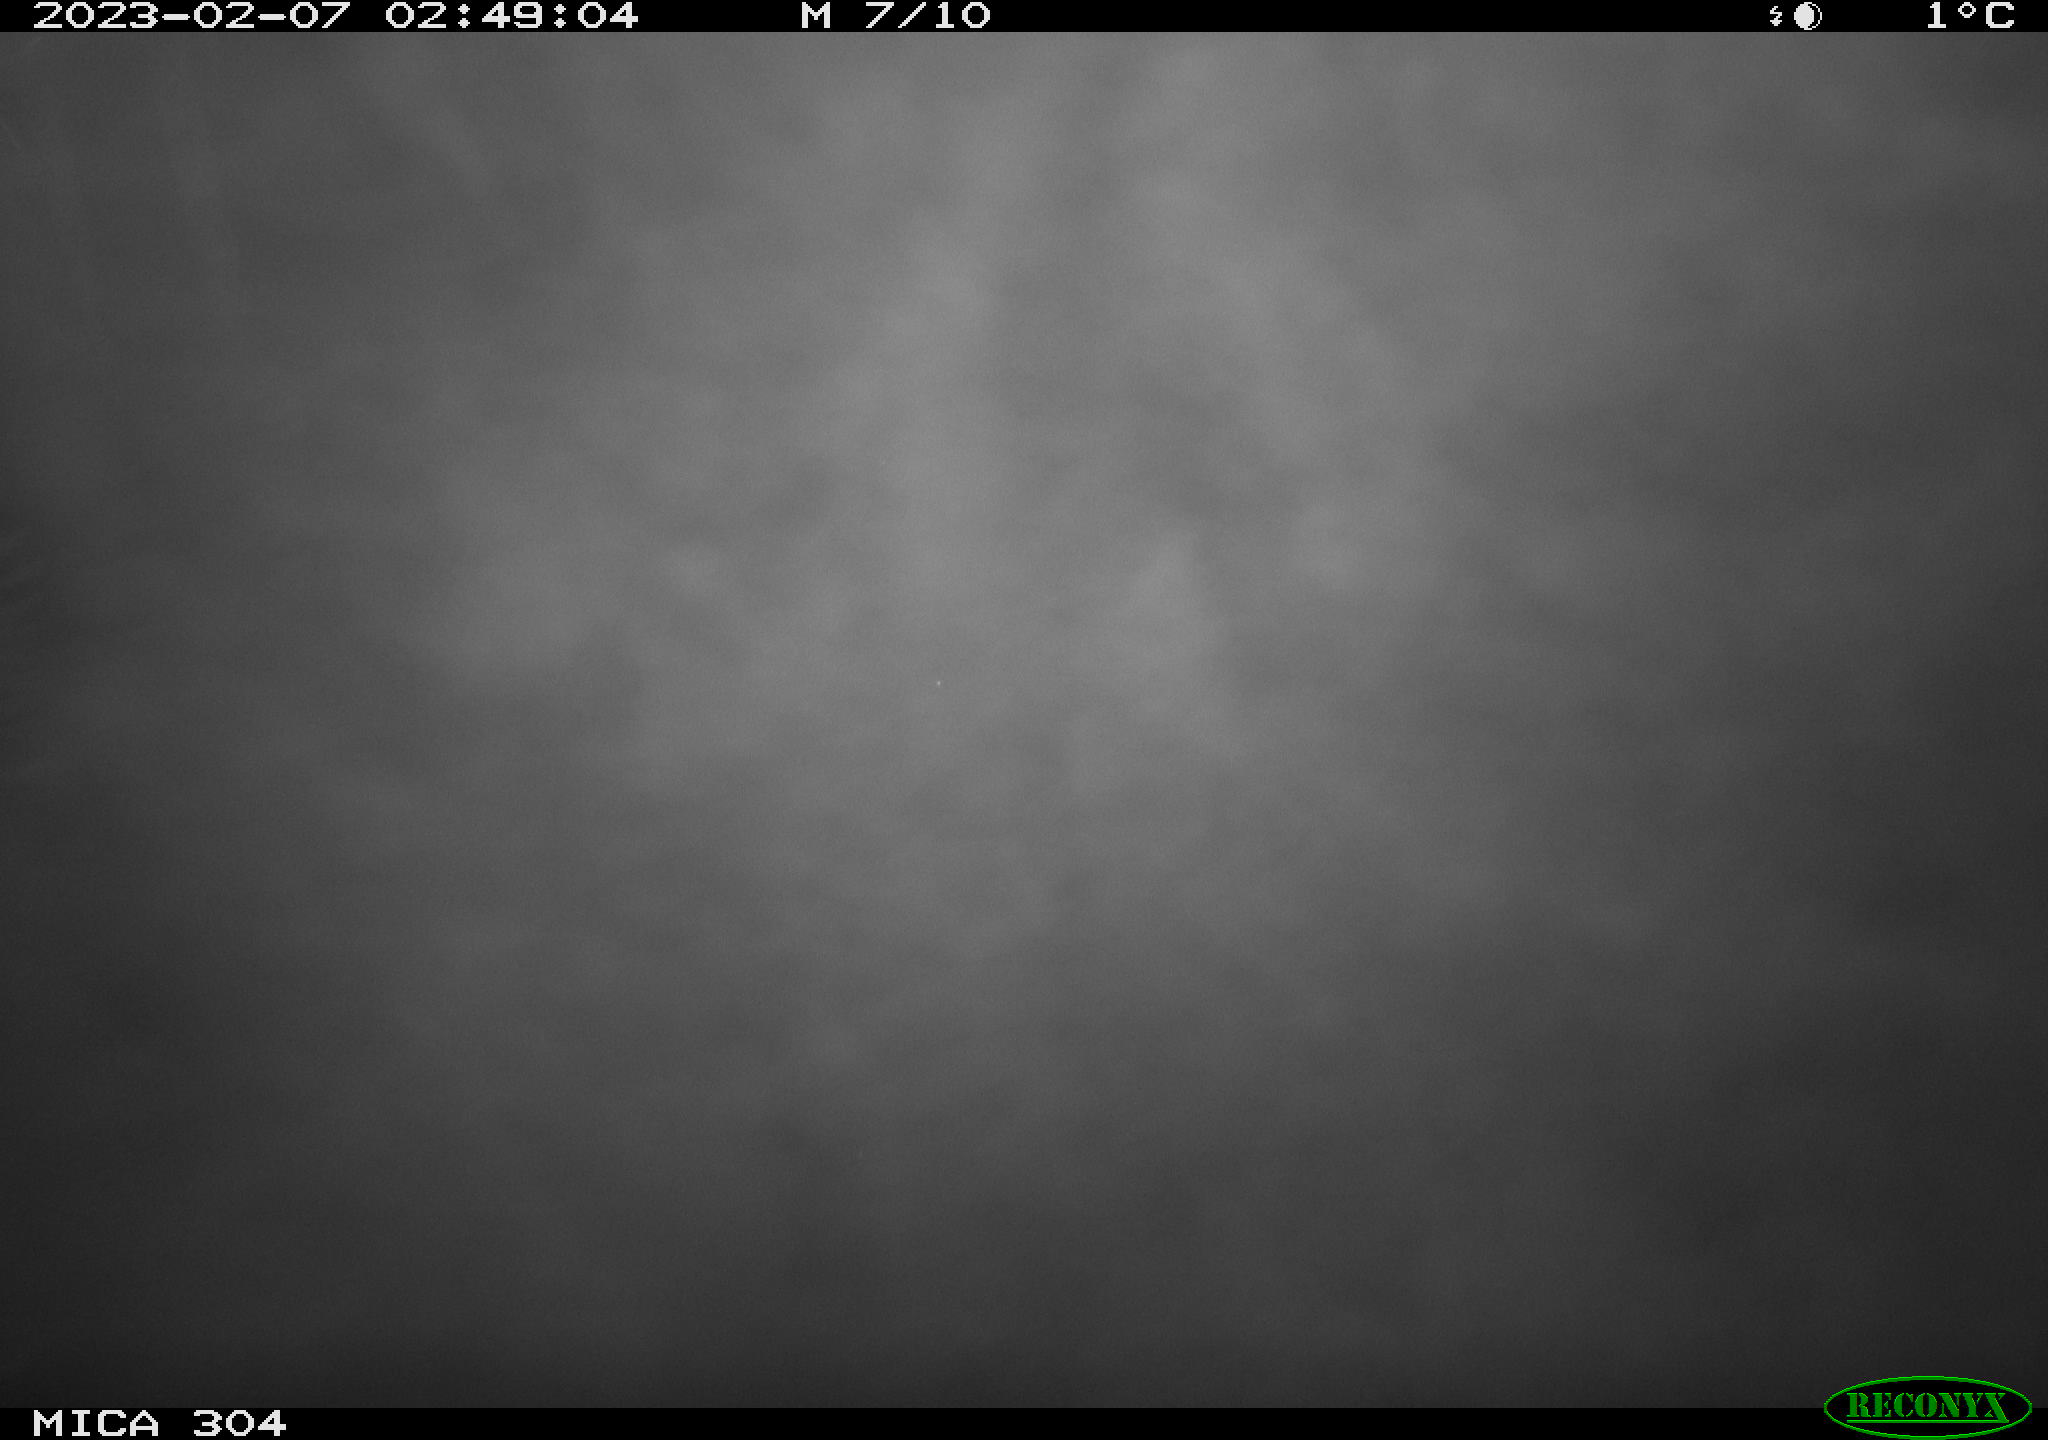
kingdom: Animalia
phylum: Chordata
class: Aves
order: Anseriformes
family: Anatidae
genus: Anas
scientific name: Anas
